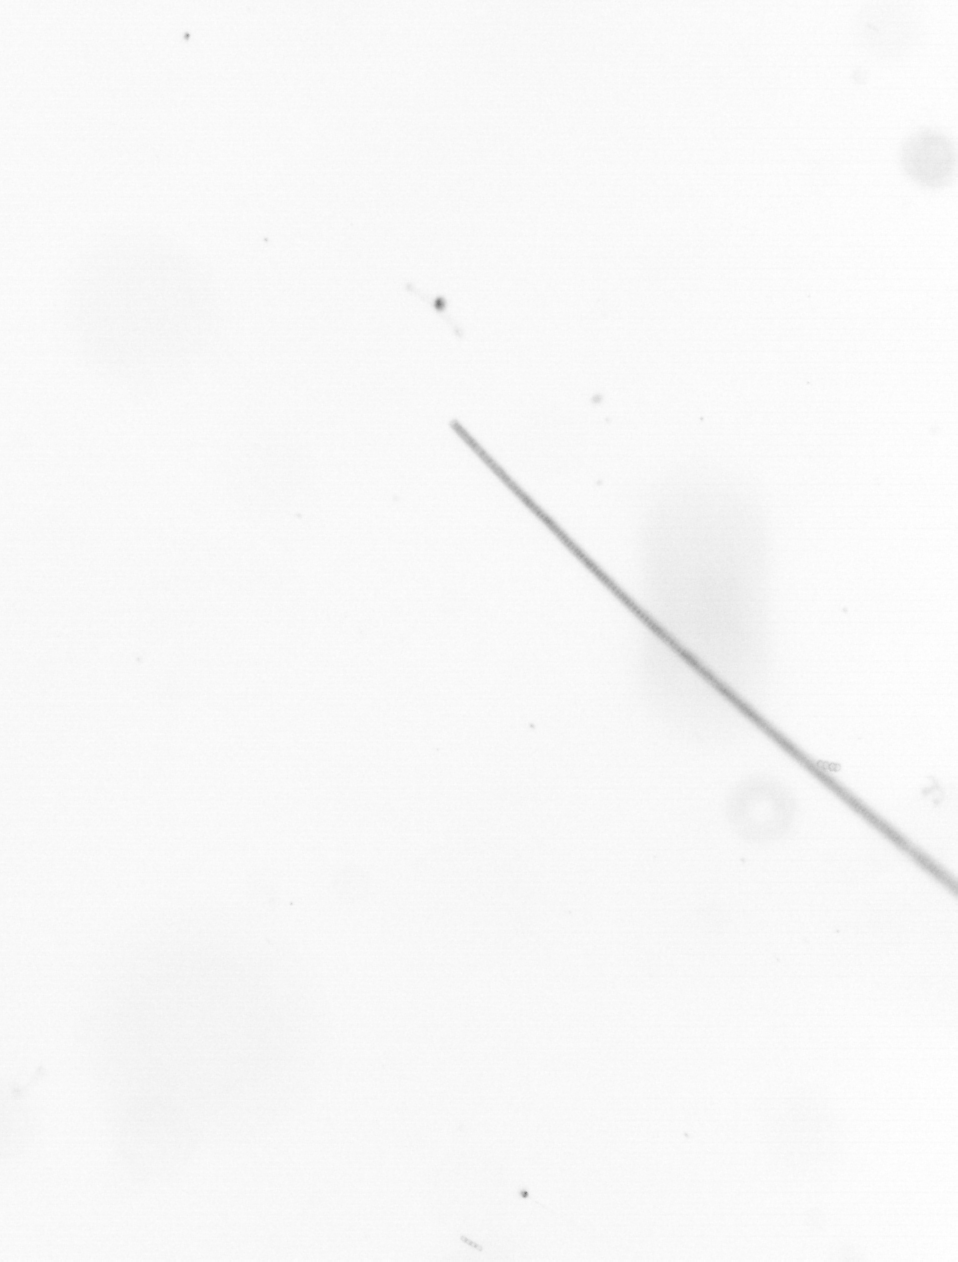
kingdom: Chromista
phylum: Ochrophyta
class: Bacillariophyceae
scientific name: Bacillariophyceae
